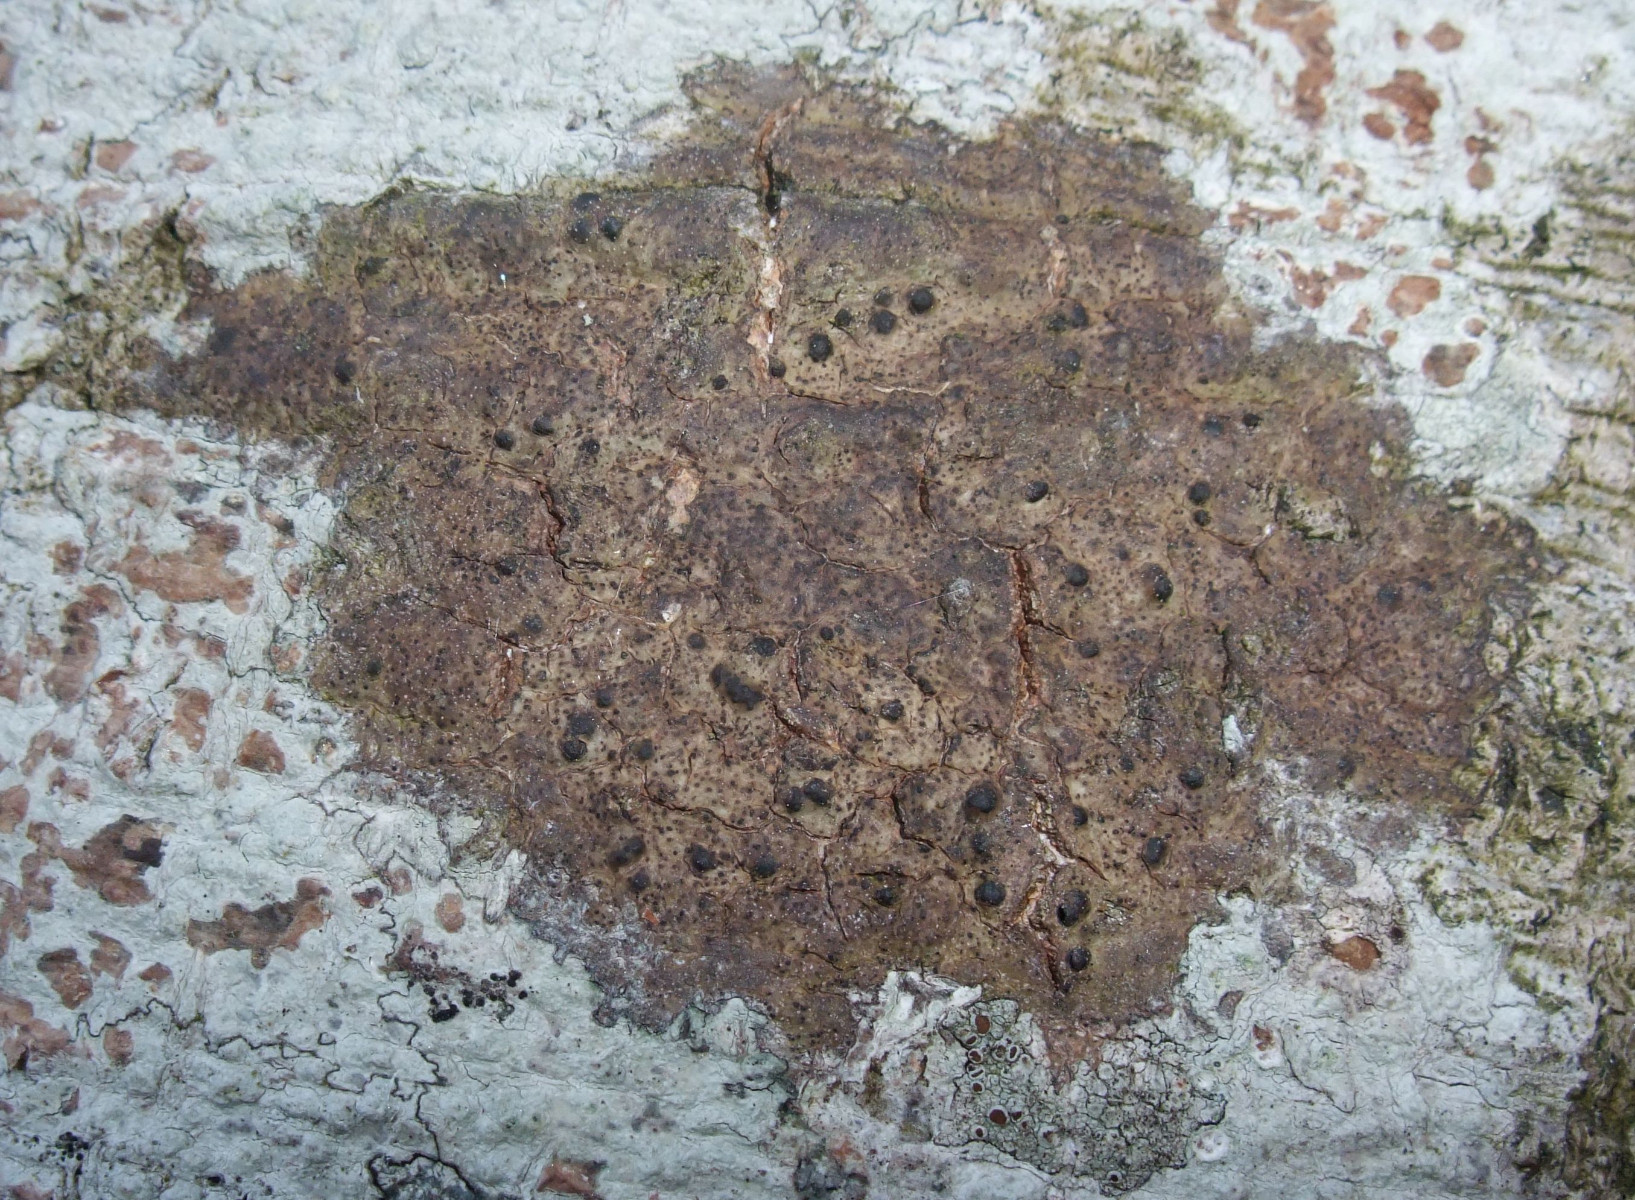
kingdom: Fungi
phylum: Ascomycota
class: Eurotiomycetes
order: Pyrenulales
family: Pyrenulaceae
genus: Pyrenula
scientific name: Pyrenula nitida
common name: glinsende kernelav
